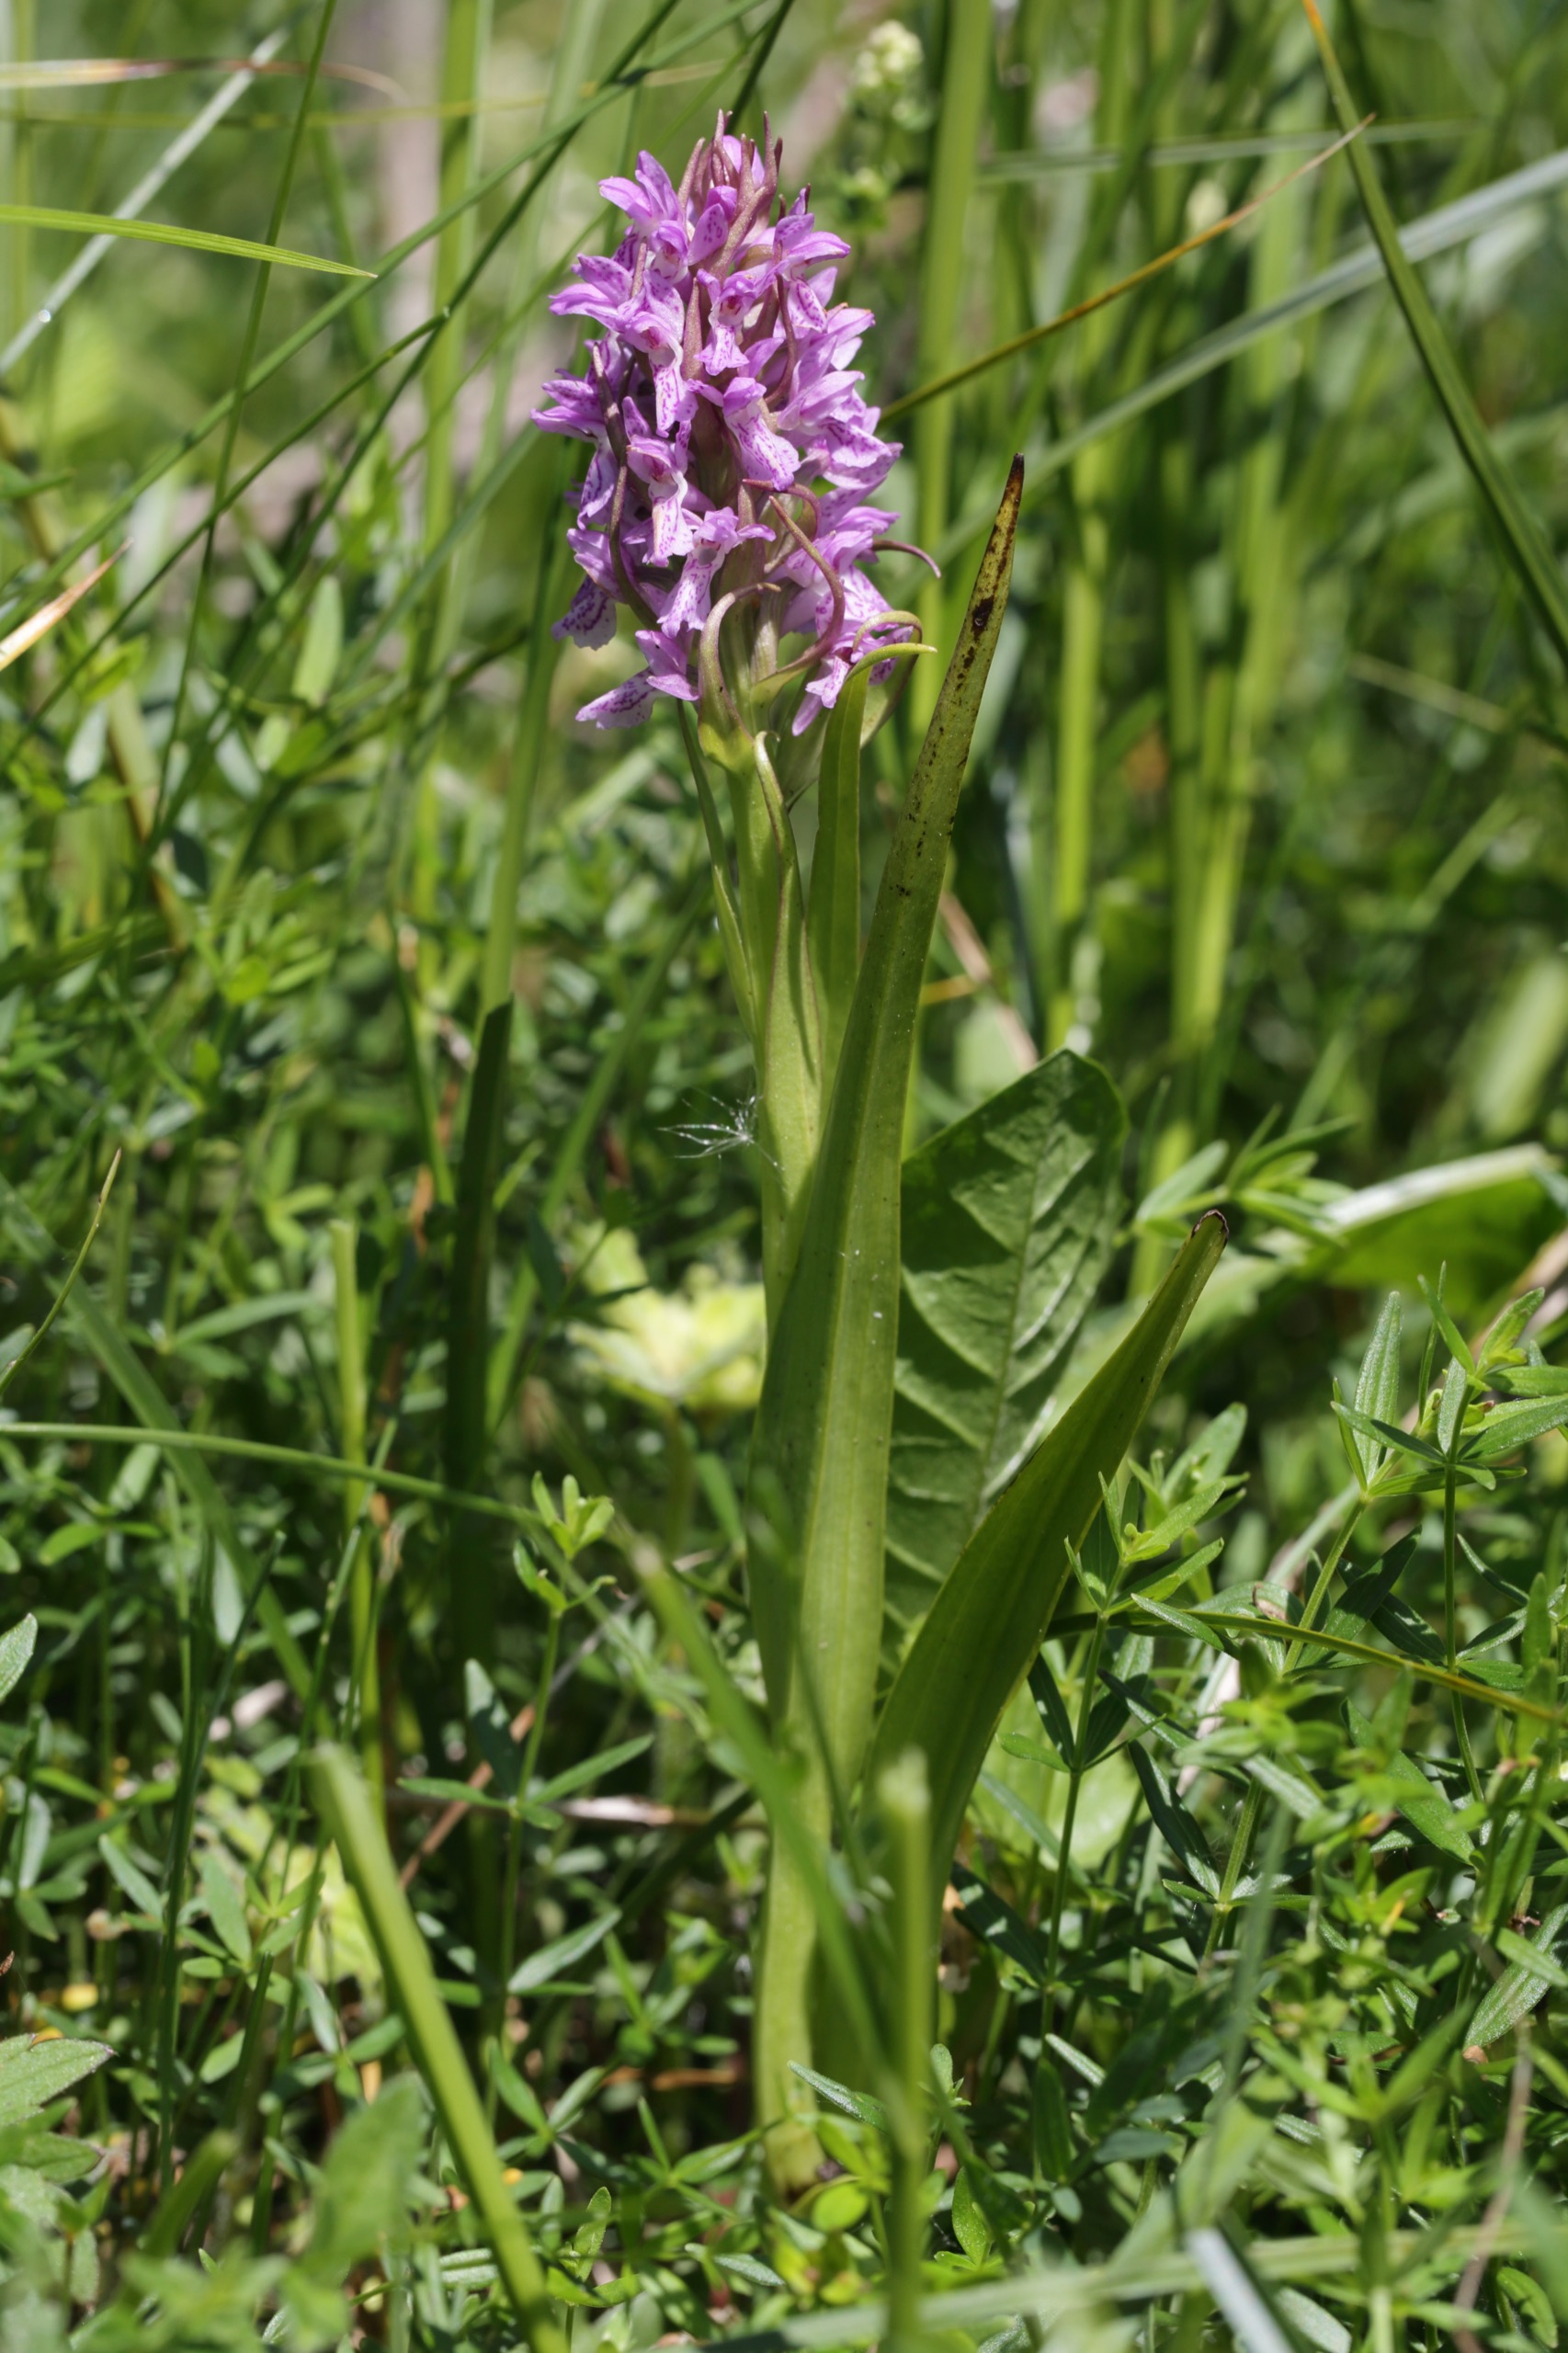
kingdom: Plantae
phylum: Tracheophyta
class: Liliopsida
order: Asparagales
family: Orchidaceae
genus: Dactylorhiza
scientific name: Dactylorhiza incarnata
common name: Kødfarvet gøgeurt
